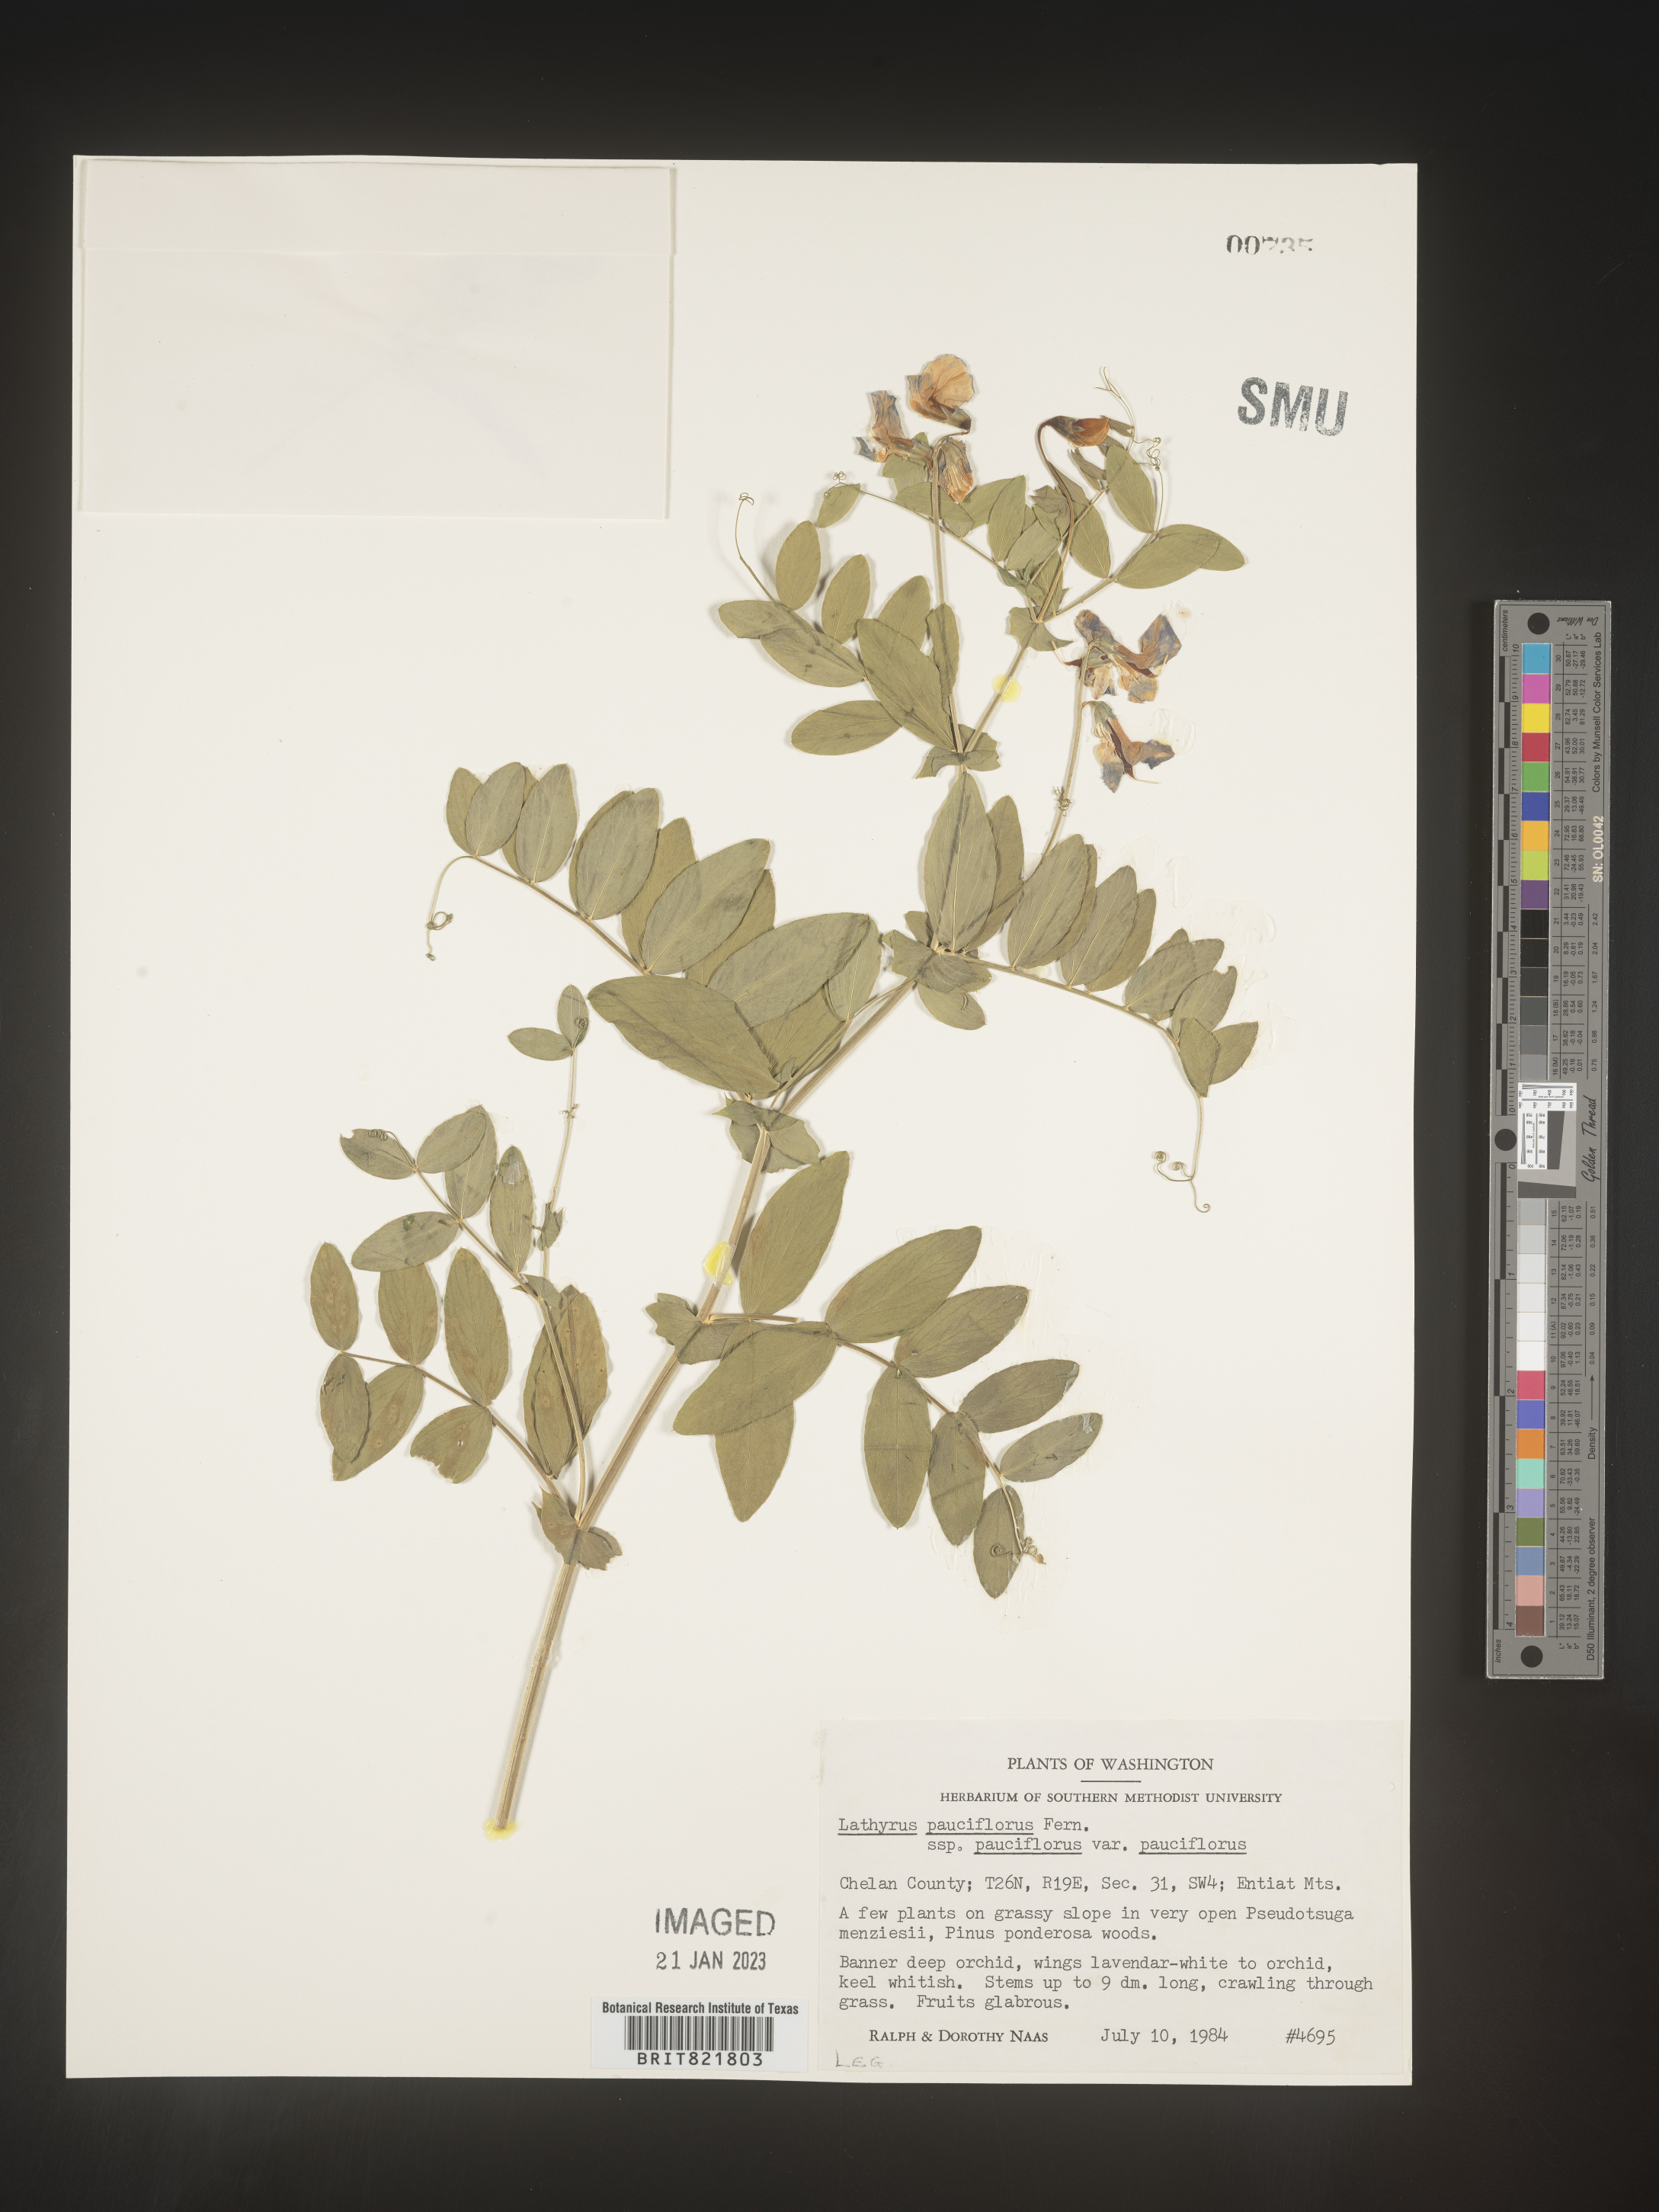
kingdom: Plantae
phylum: Tracheophyta
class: Magnoliopsida
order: Fabales
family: Fabaceae
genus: Lathyrus
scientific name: Lathyrus
